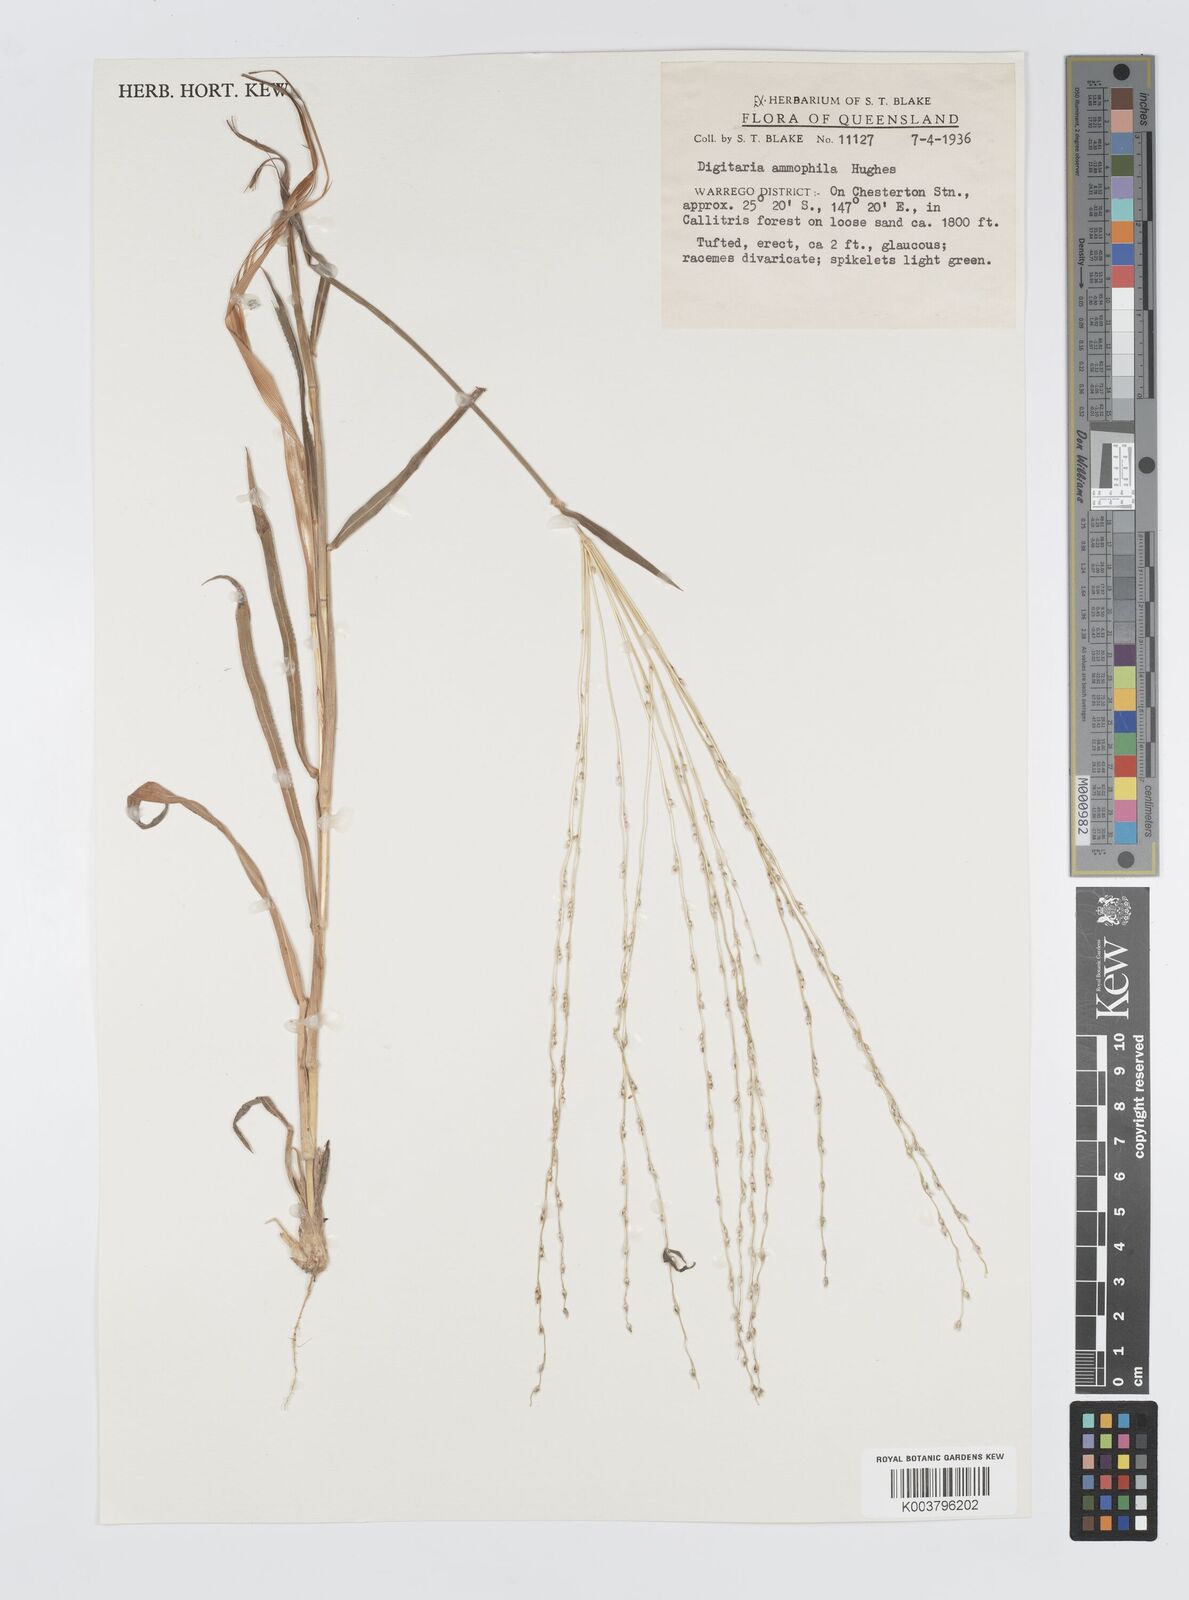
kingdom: Plantae
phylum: Tracheophyta
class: Liliopsida
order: Poales
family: Poaceae
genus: Digitaria
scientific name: Digitaria ammophila
